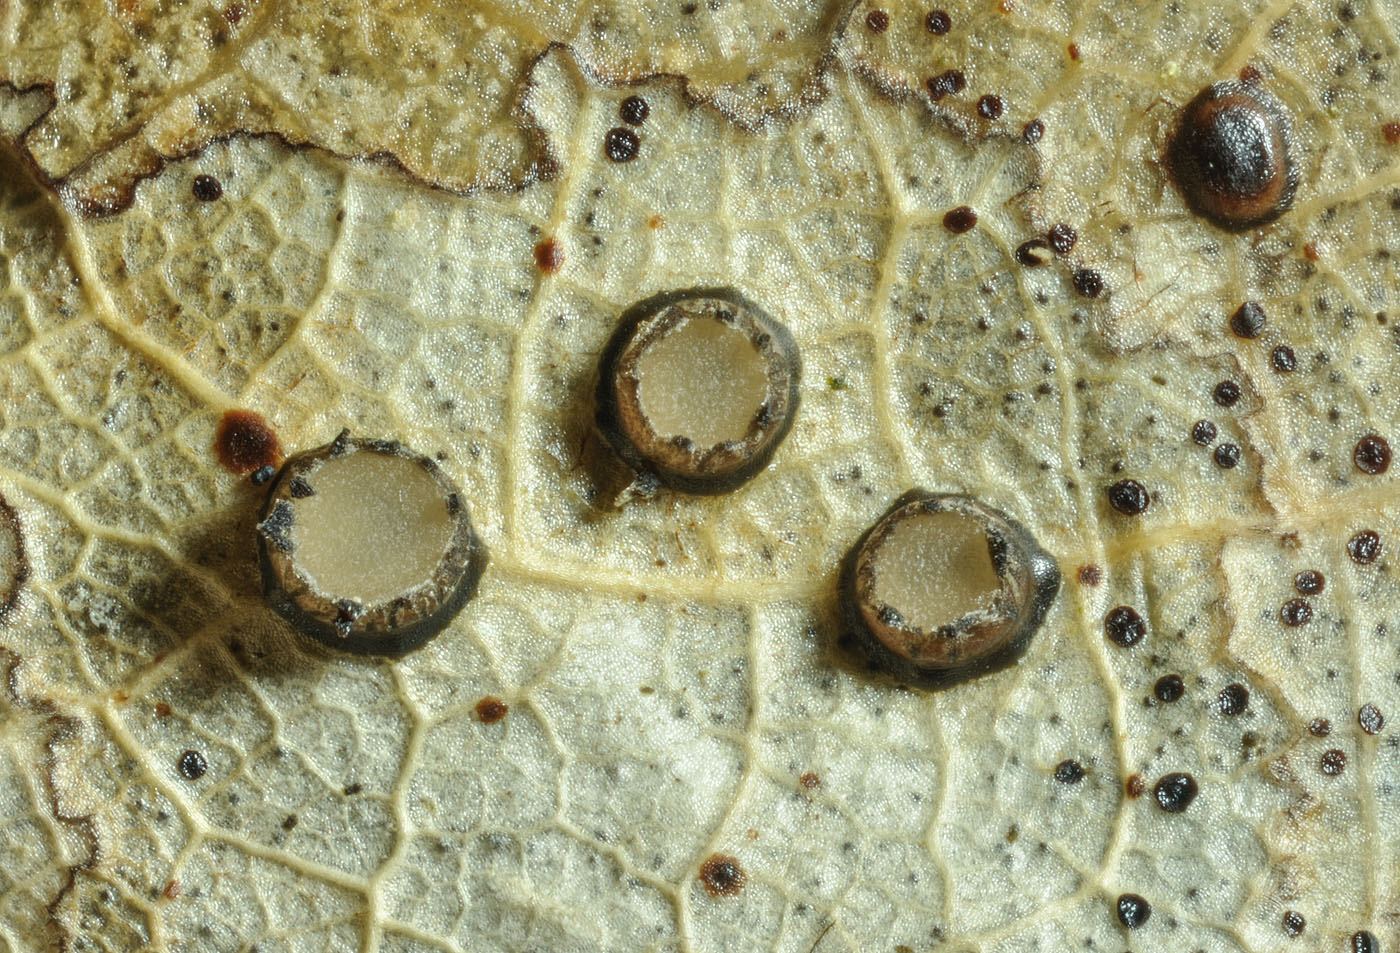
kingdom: Fungi
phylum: Ascomycota
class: Leotiomycetes
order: Rhytismatales
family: Rhytismataceae
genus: Coccomyces
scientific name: Coccomyces tumidus
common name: stor tandskive
